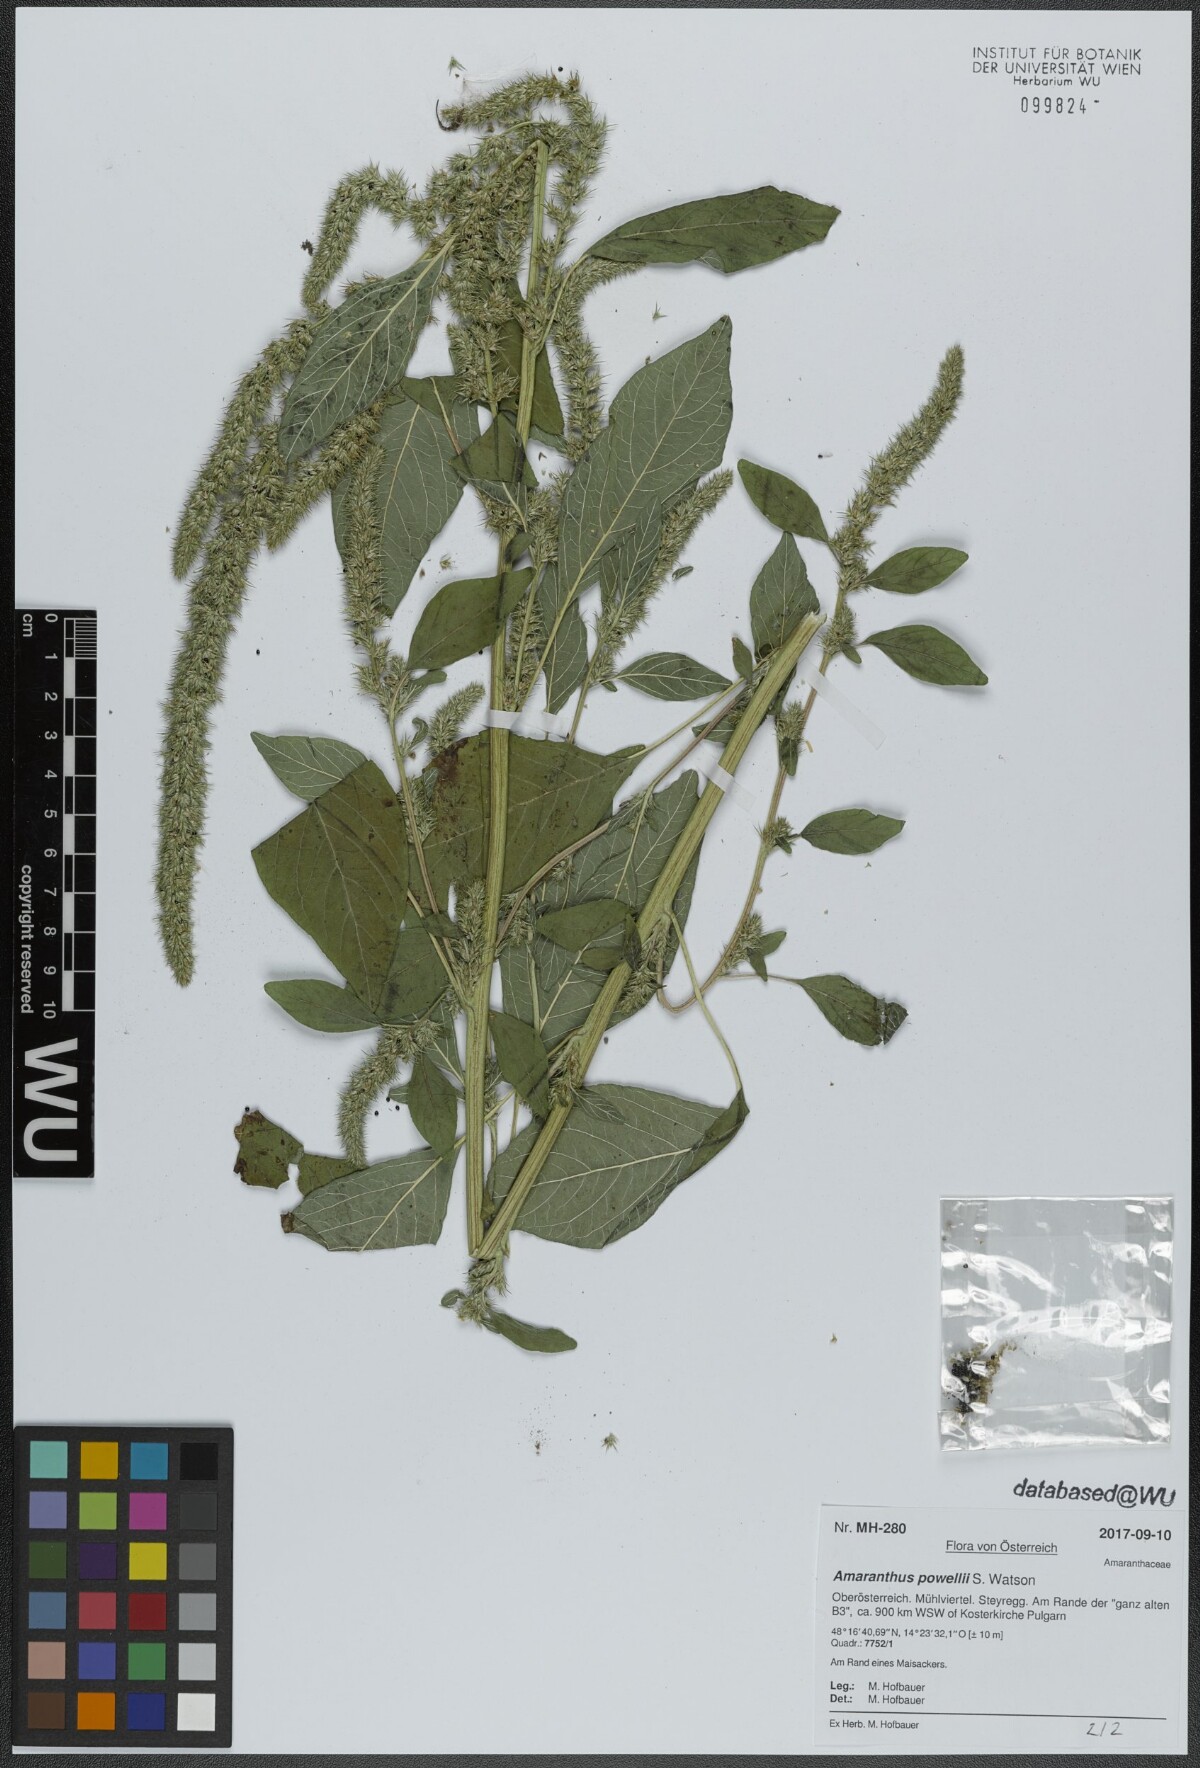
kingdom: Plantae
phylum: Tracheophyta
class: Magnoliopsida
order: Caryophyllales
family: Amaranthaceae
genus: Amaranthus
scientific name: Amaranthus powellii
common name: Powell's amaranth
